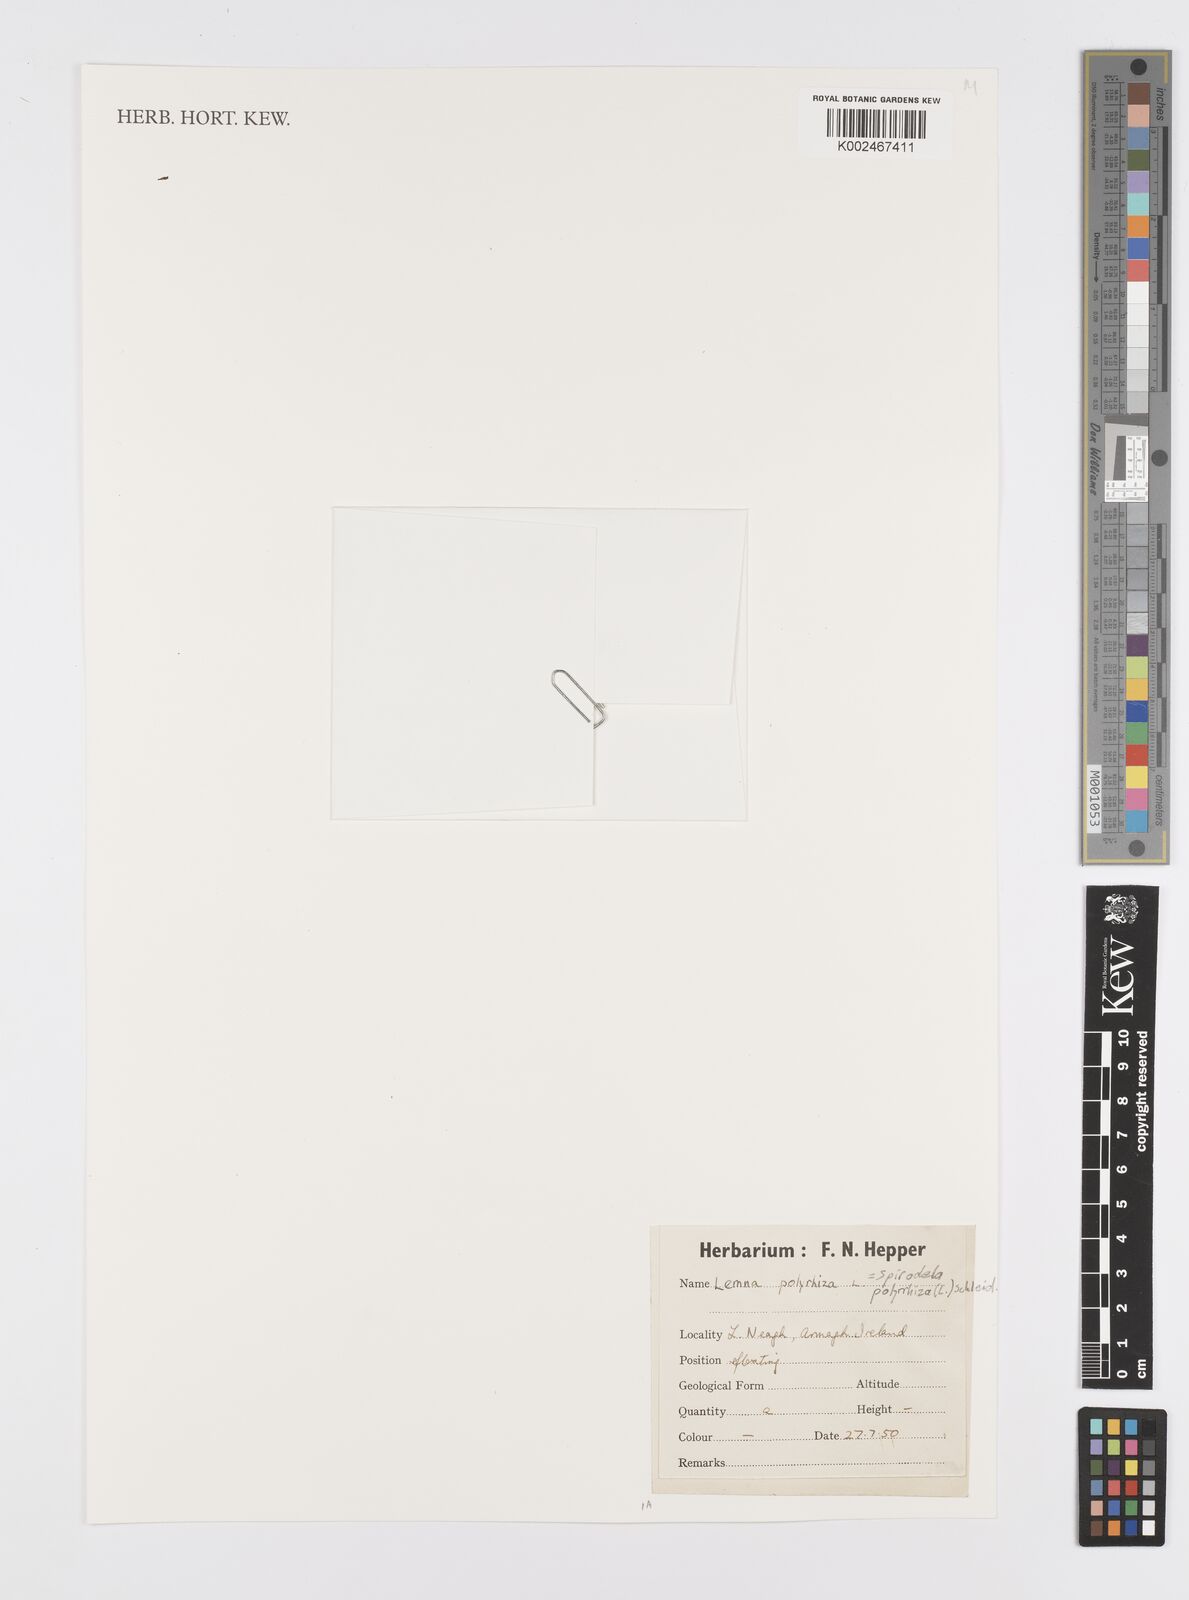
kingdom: Plantae
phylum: Tracheophyta
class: Liliopsida
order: Alismatales
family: Araceae
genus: Spirodela
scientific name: Spirodela polyrhiza
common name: Great duckweed
